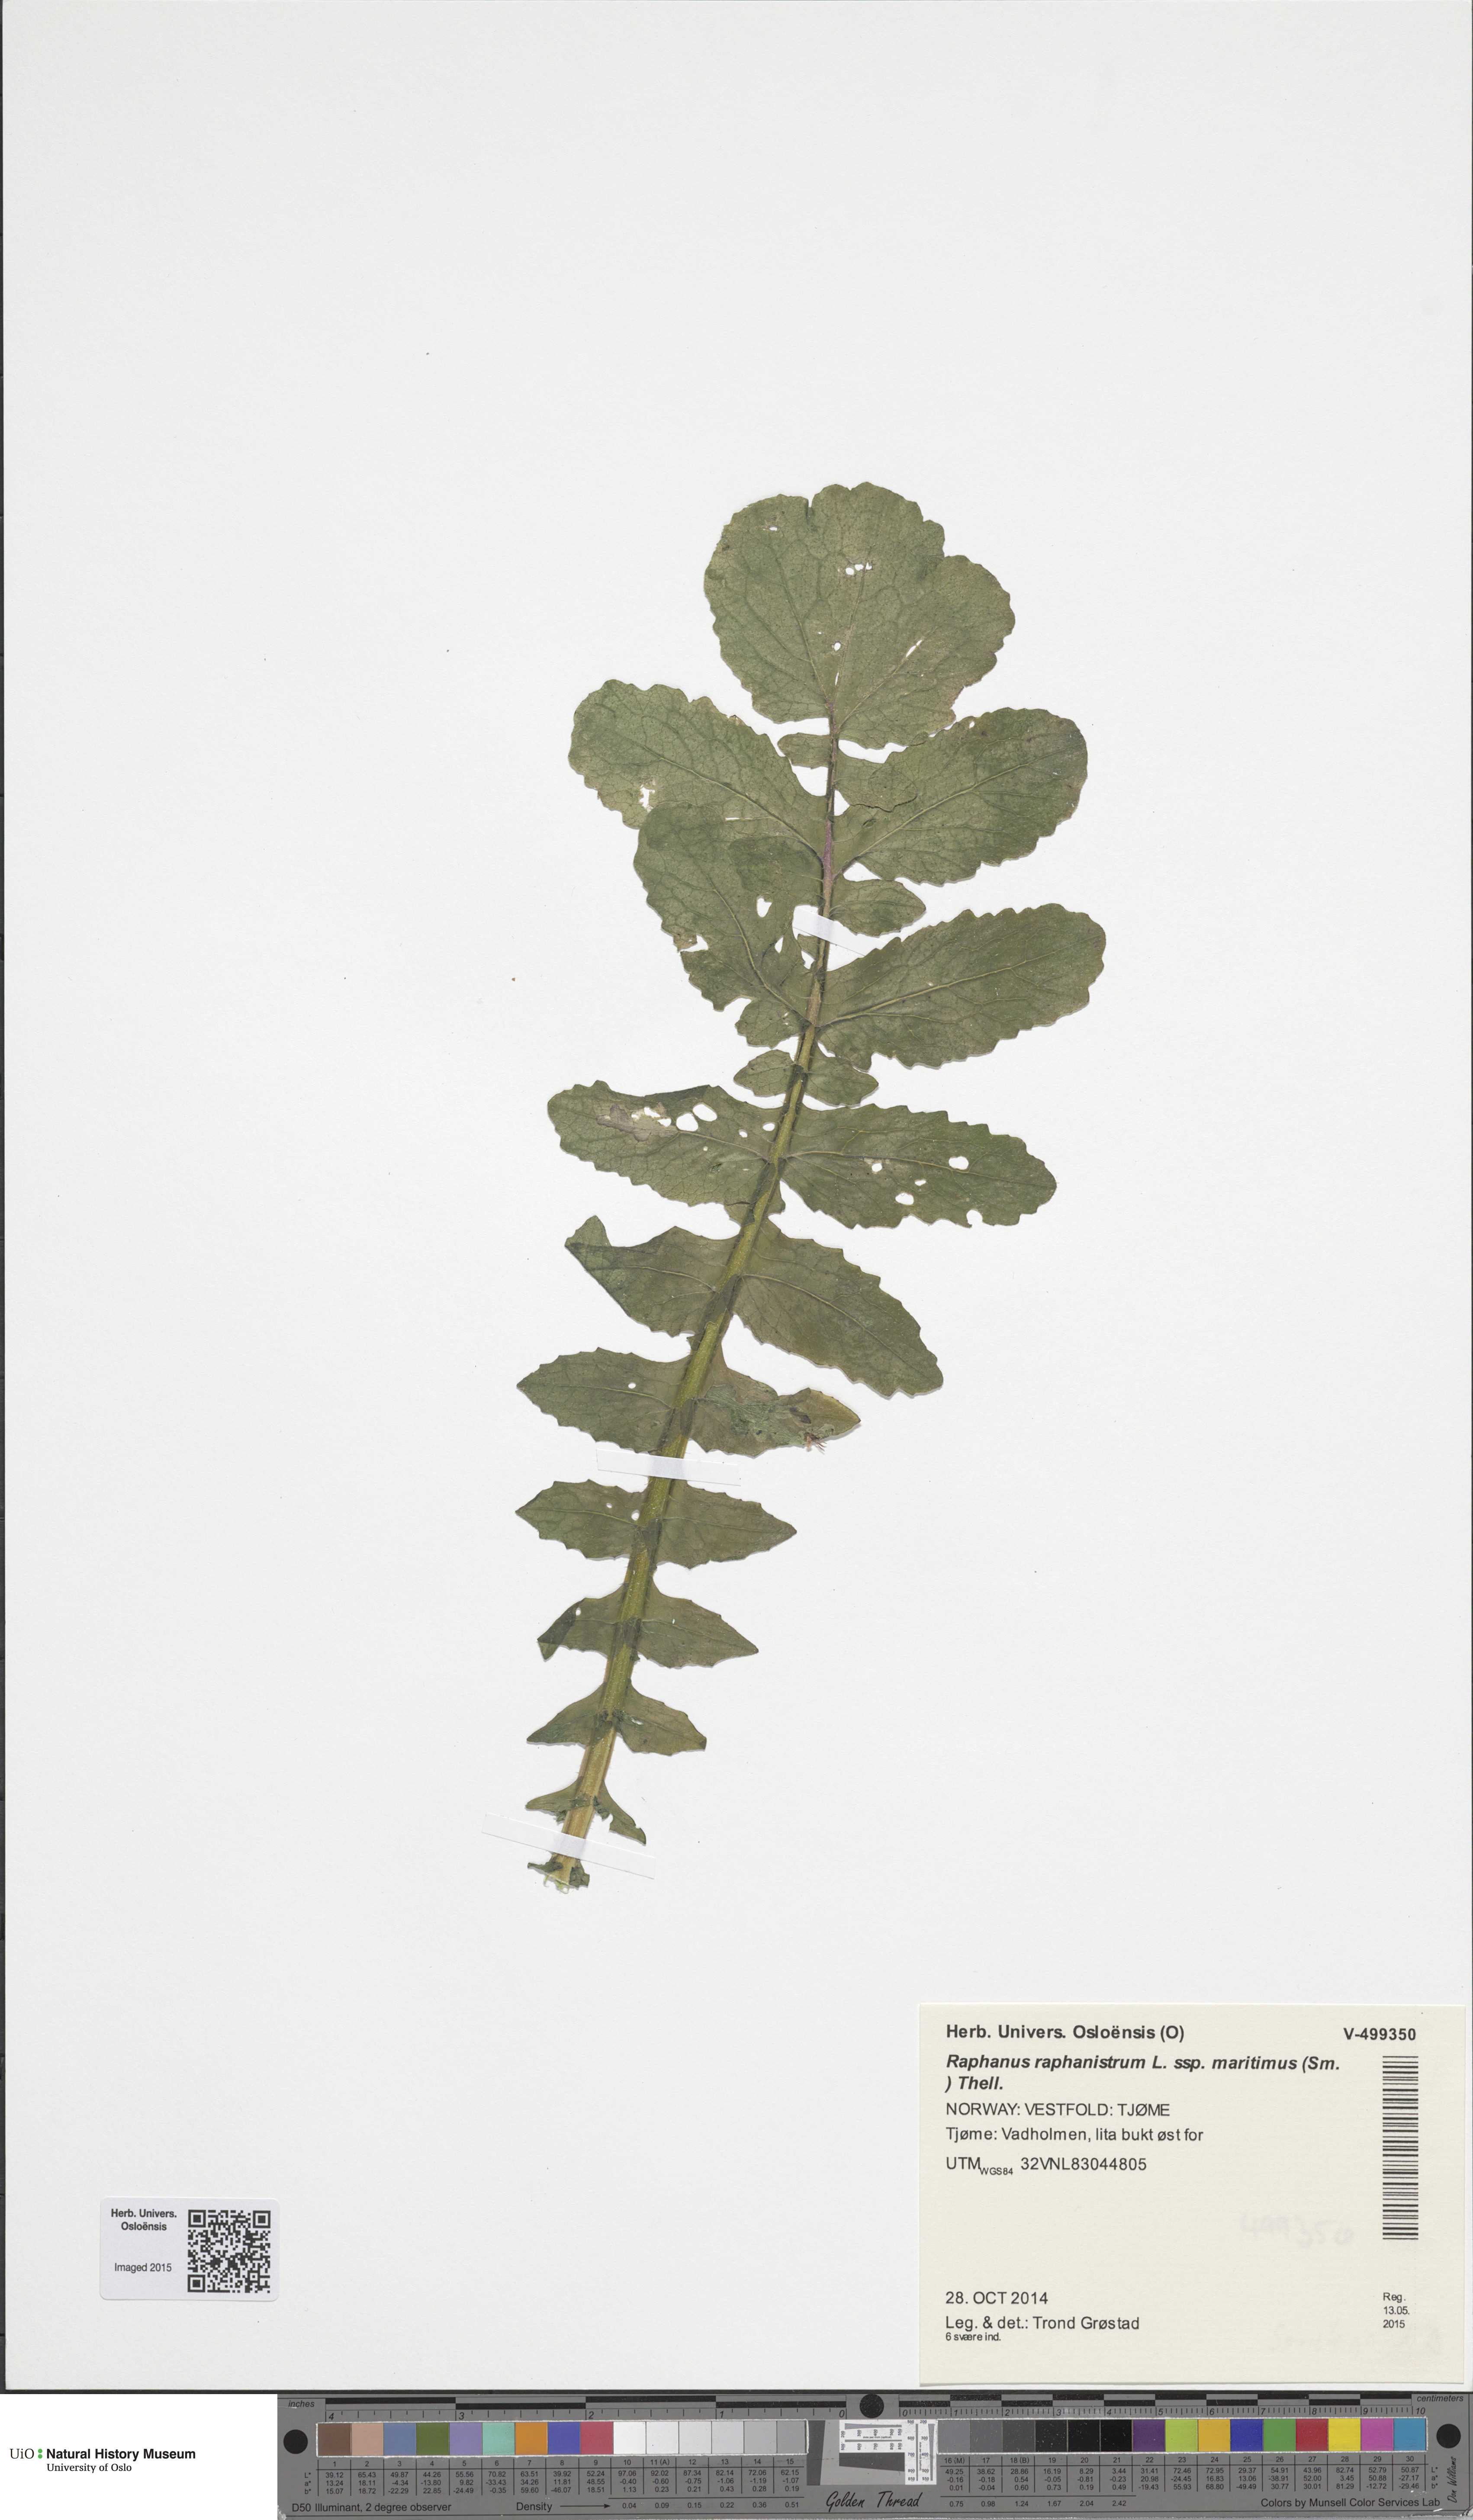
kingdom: Plantae
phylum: Tracheophyta
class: Magnoliopsida
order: Brassicales
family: Brassicaceae
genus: Raphanus
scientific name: Raphanus raphanistrum
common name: Wild radish
